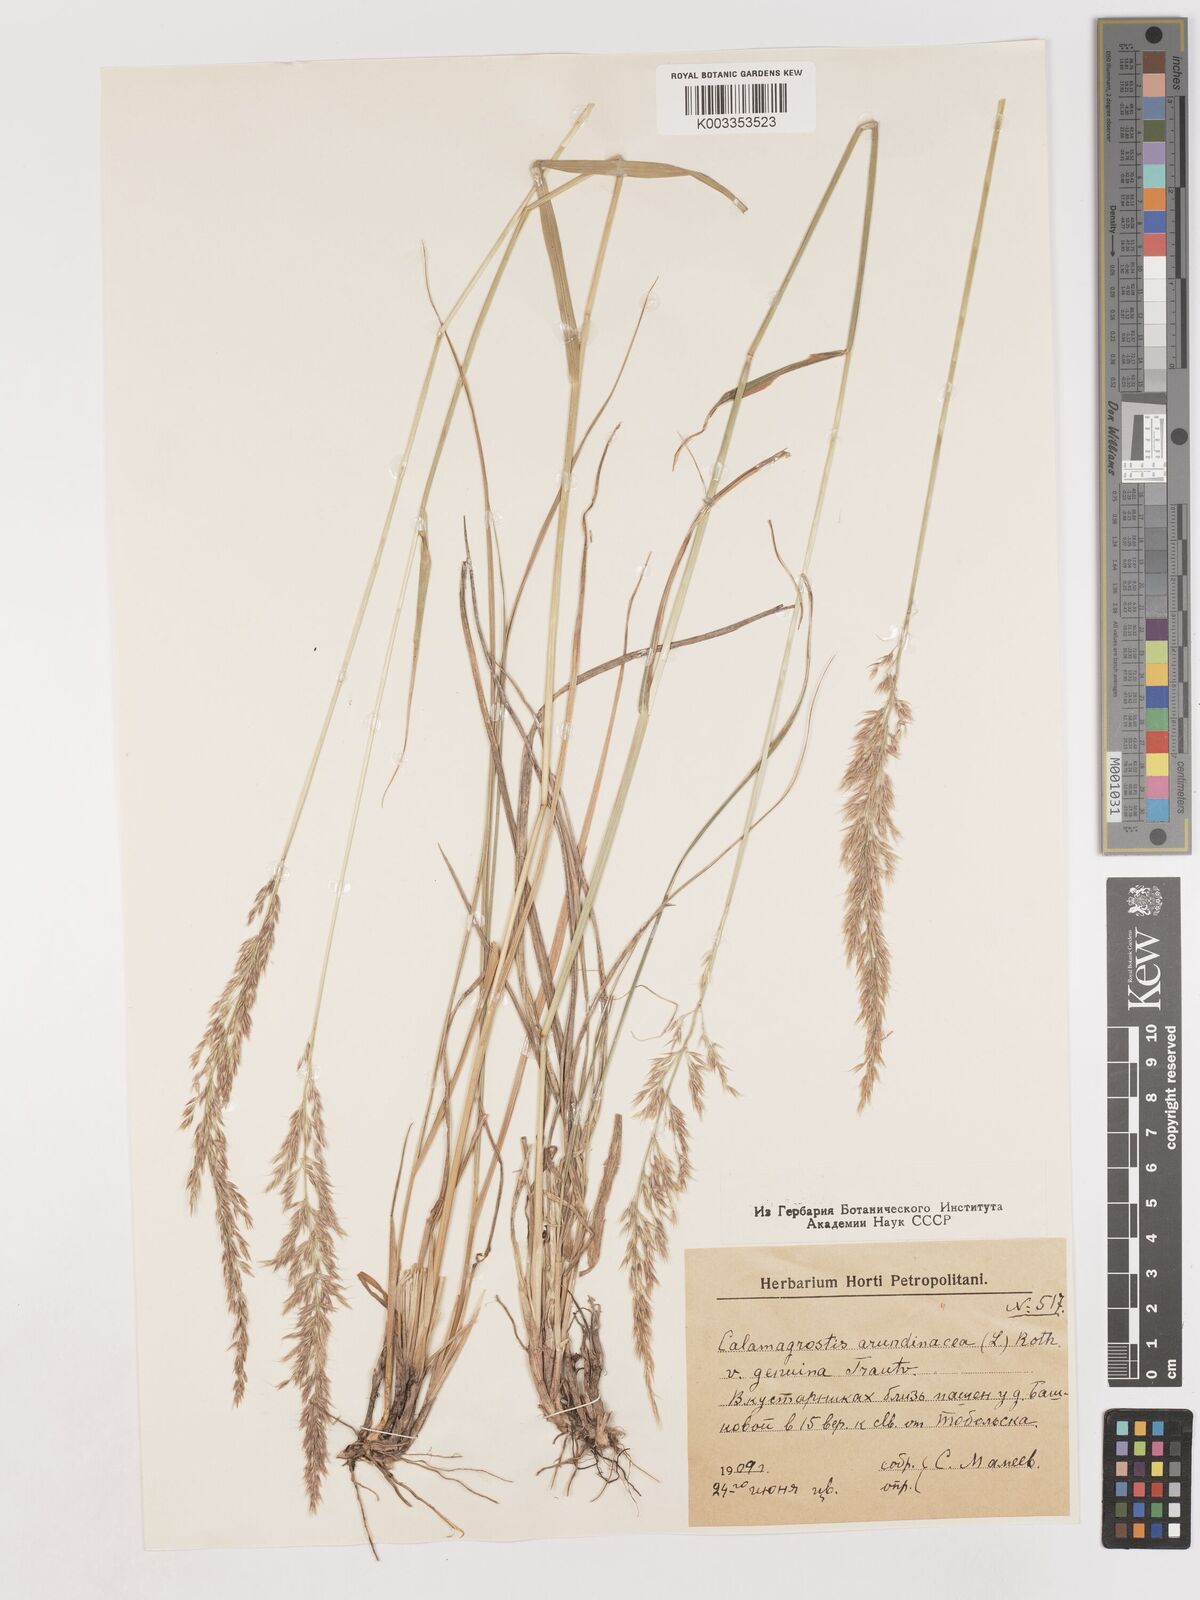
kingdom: Plantae
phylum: Tracheophyta
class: Liliopsida
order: Poales
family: Poaceae
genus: Calamagrostis
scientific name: Calamagrostis
